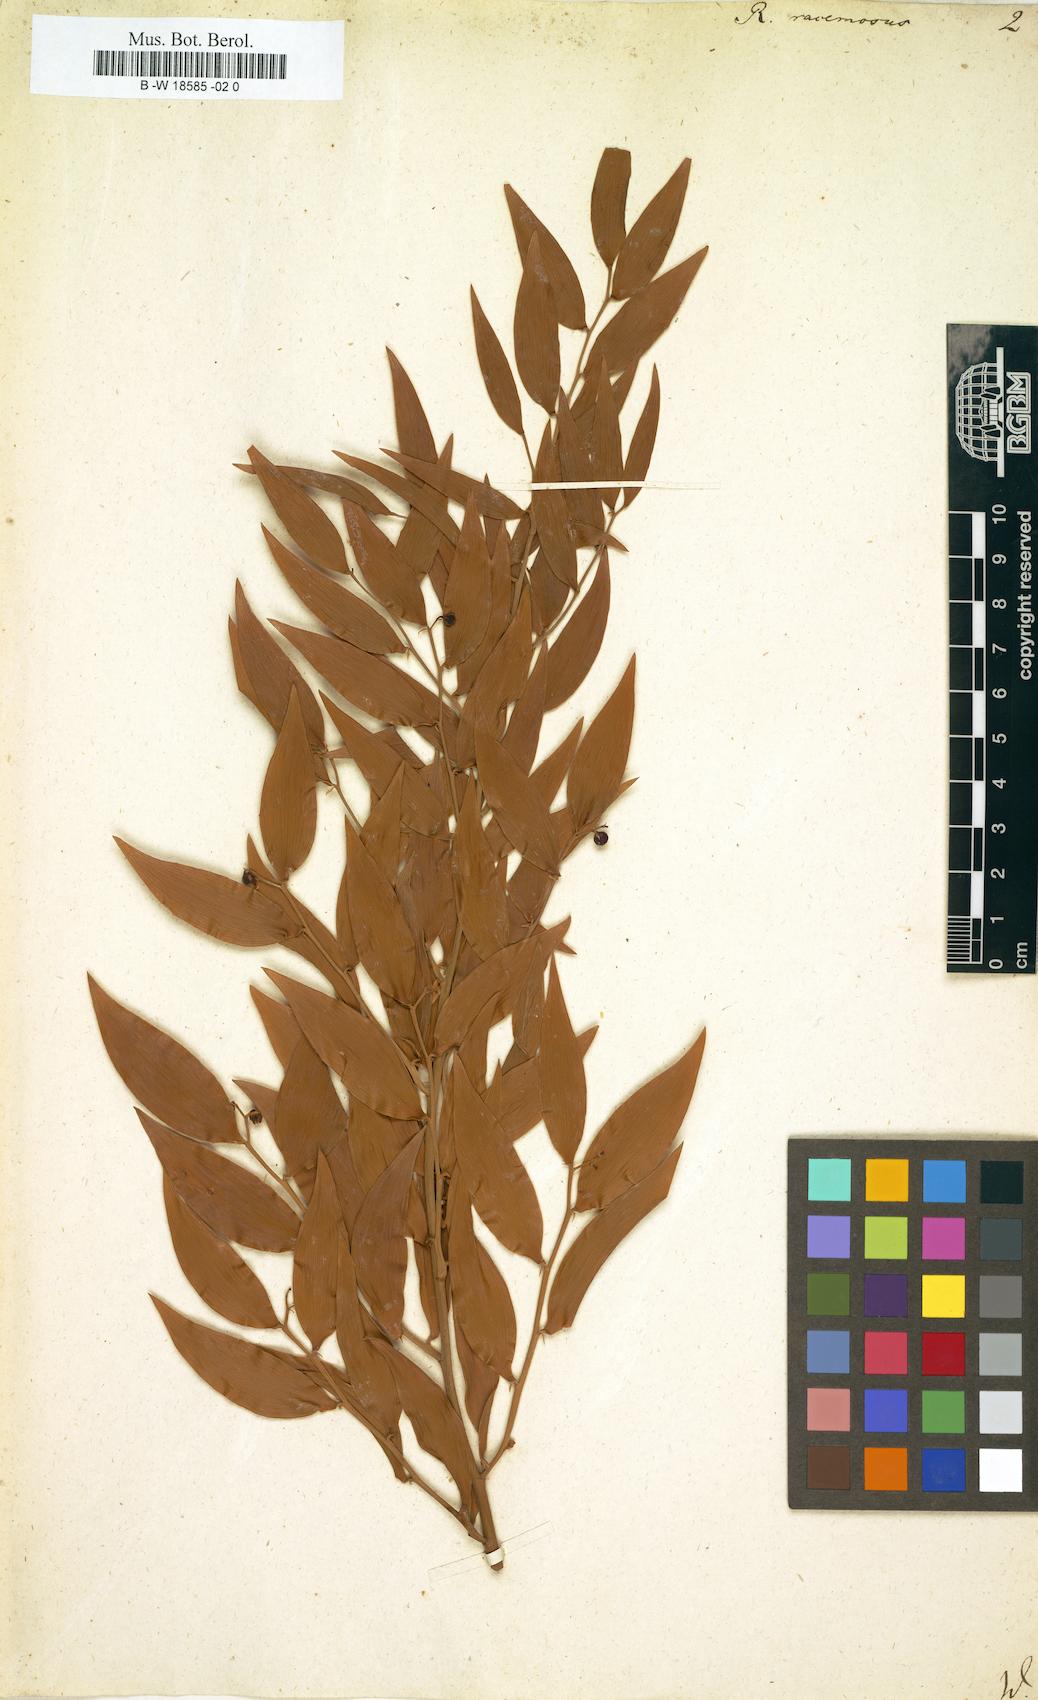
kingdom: Plantae
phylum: Tracheophyta
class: Liliopsida
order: Asparagales
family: Asparagaceae
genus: Danae
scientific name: Danae racemosa
